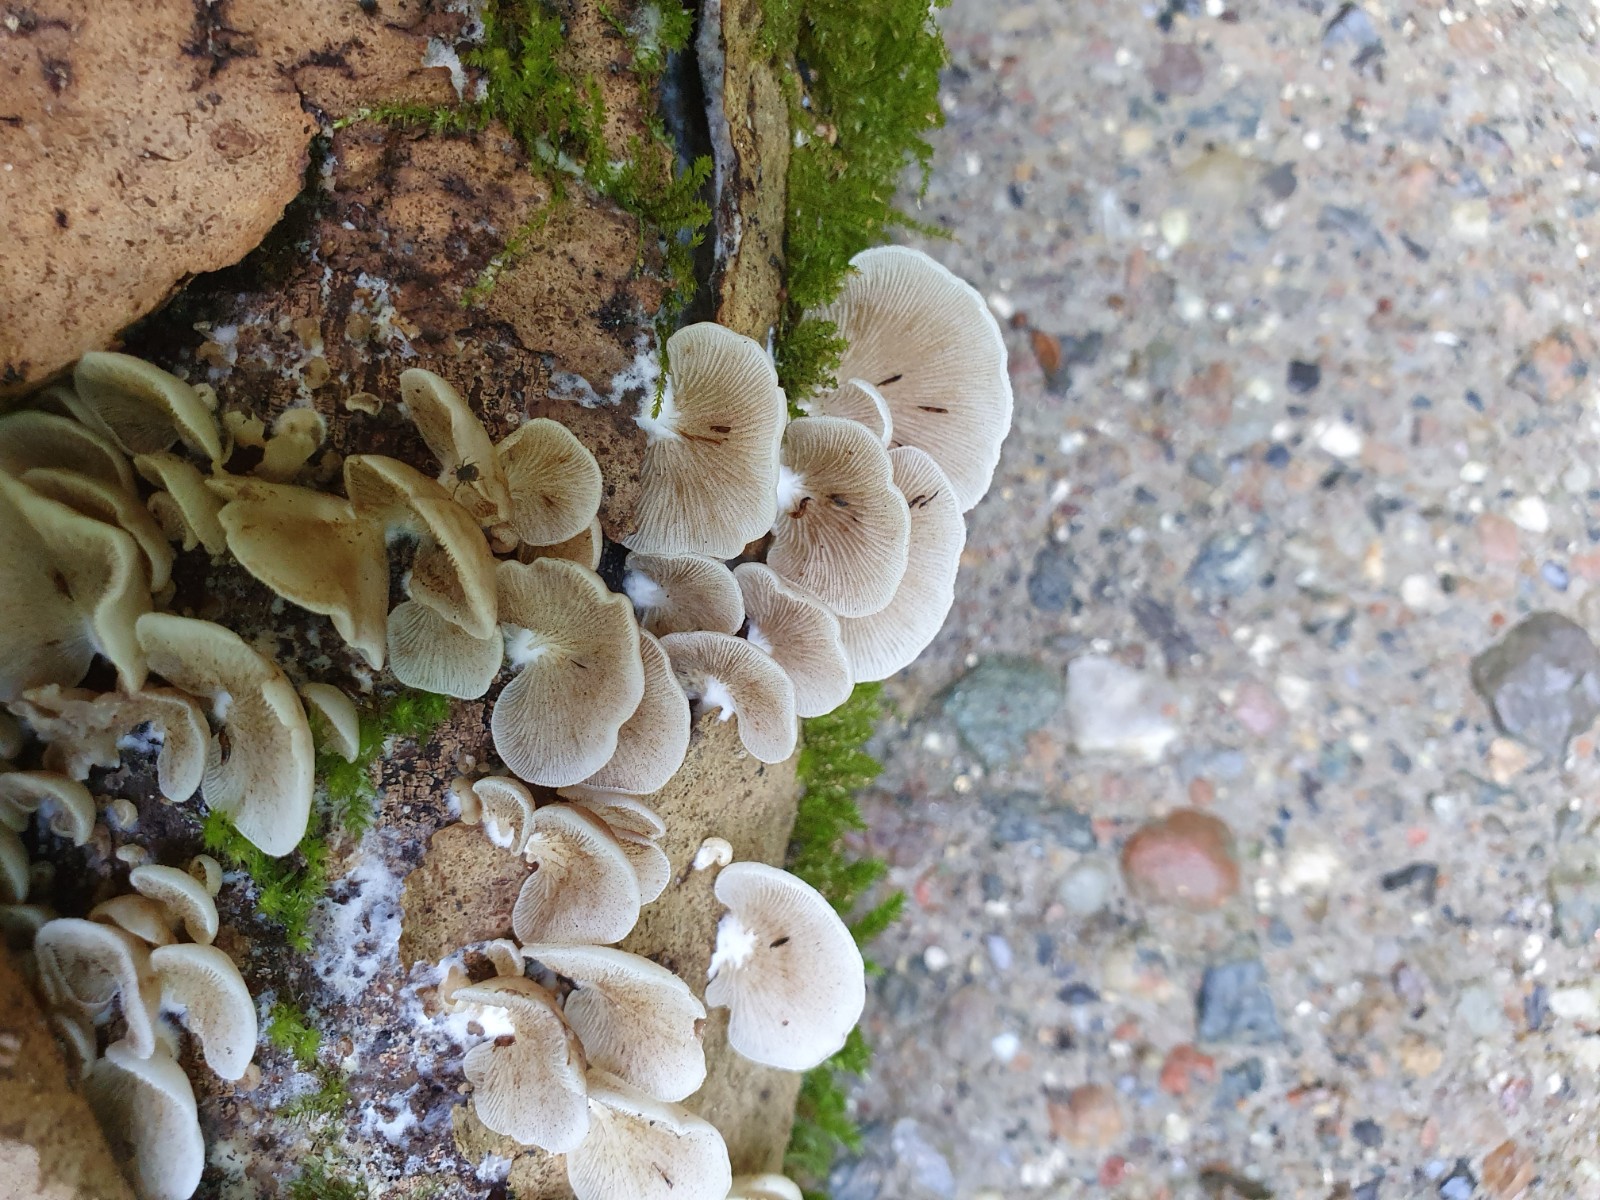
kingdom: Fungi
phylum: Basidiomycota
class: Agaricomycetes
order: Agaricales
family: Crepidotaceae
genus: Crepidotus
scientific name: Crepidotus mollis
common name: blød muslingesvamp
